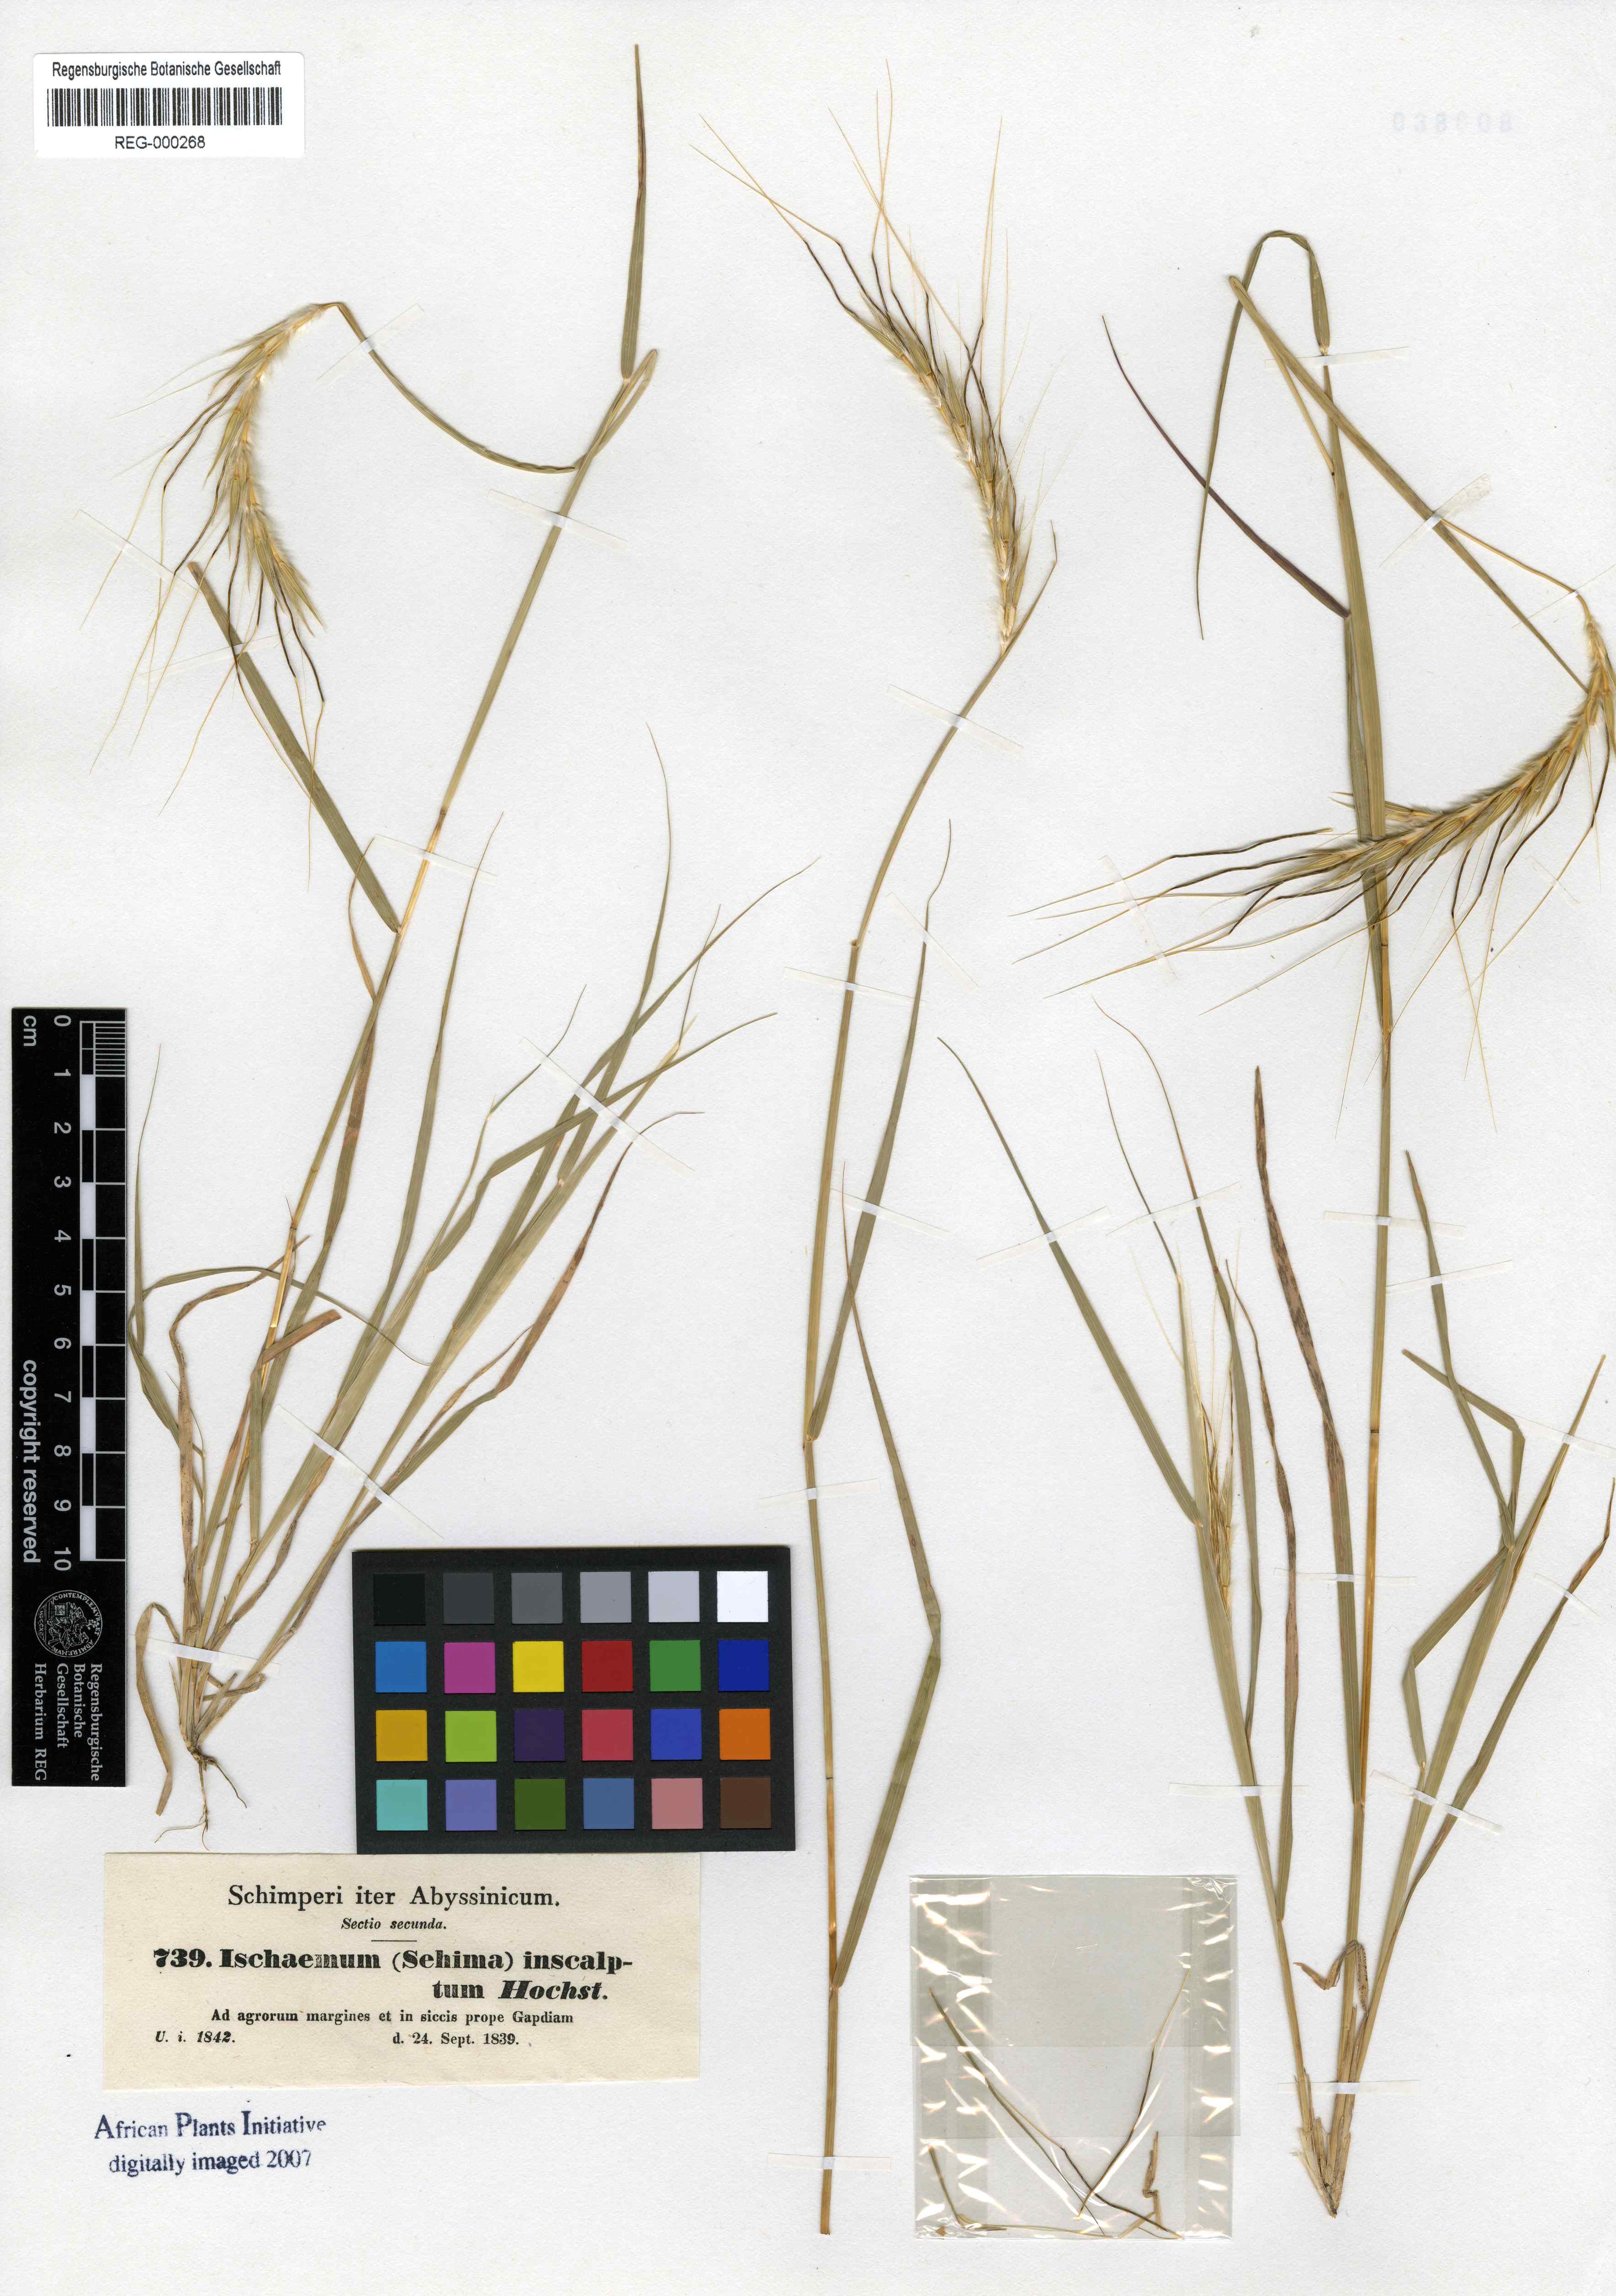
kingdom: Plantae
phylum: Tracheophyta
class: Liliopsida
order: Poales
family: Poaceae
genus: Sehima
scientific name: Sehima ischaemoides
